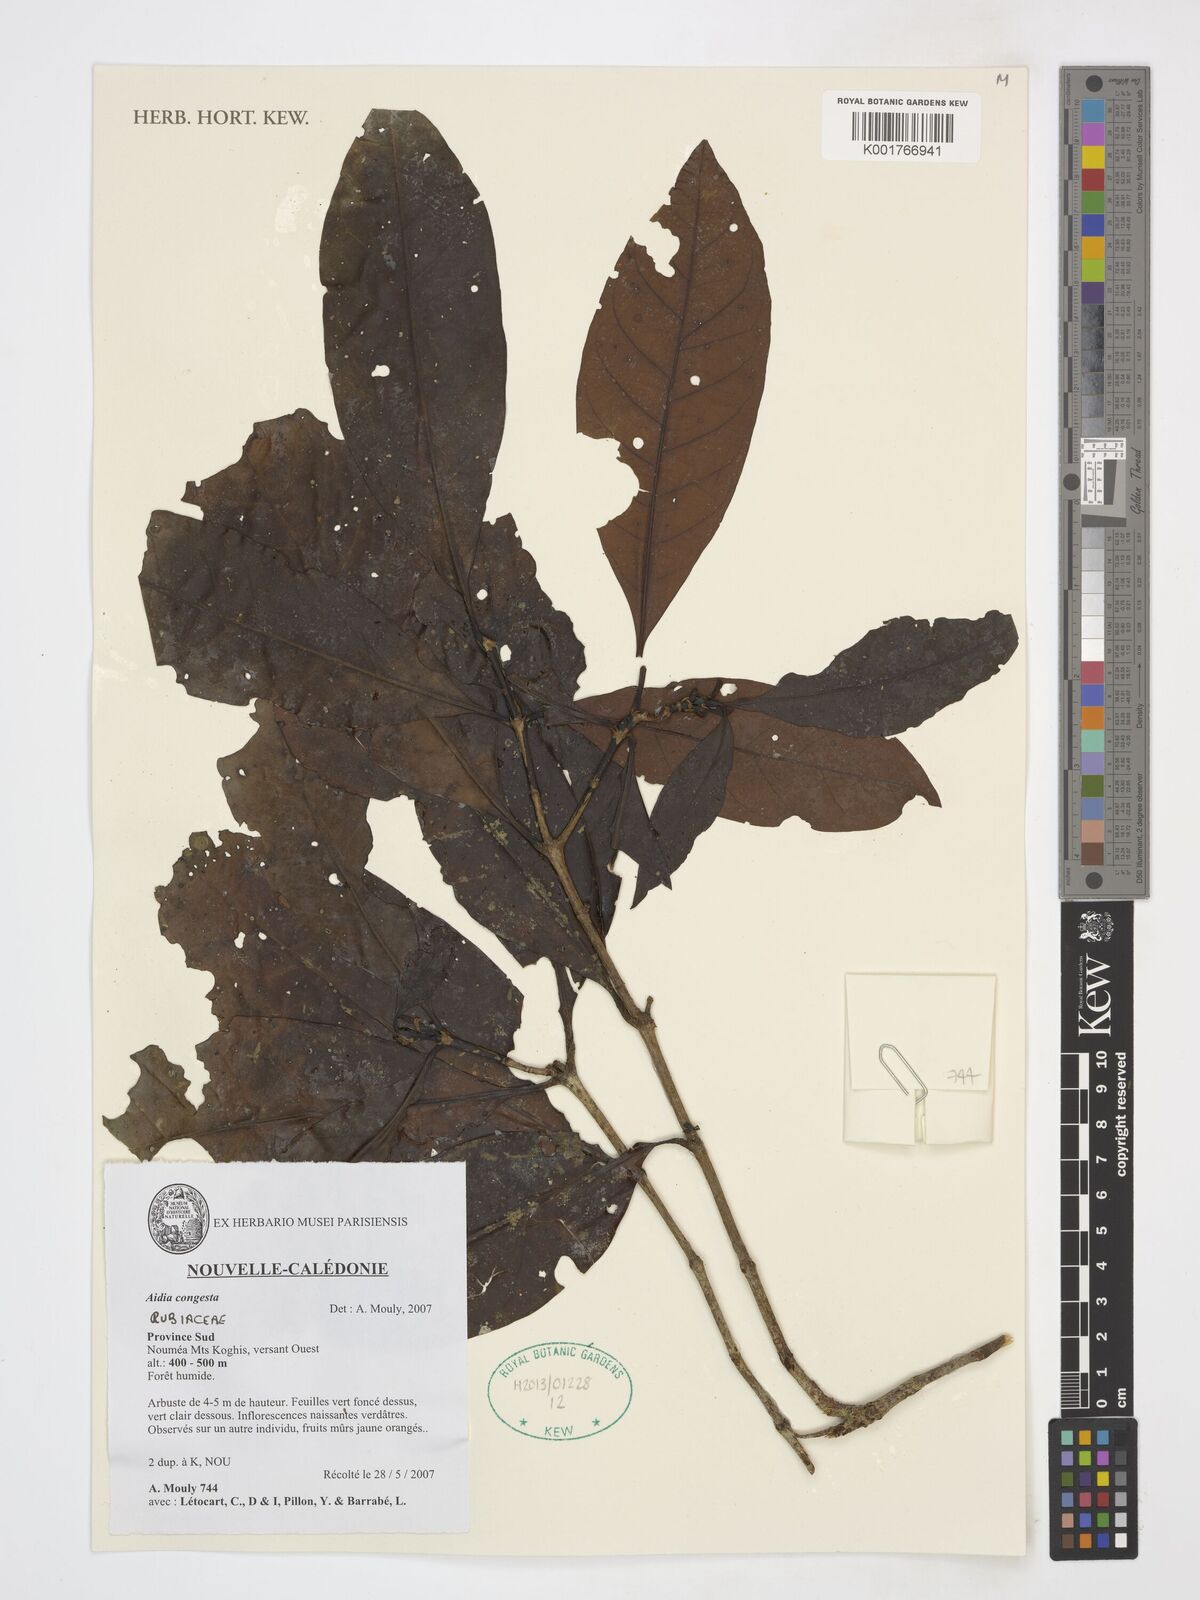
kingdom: Plantae
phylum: Tracheophyta
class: Magnoliopsida
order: Gentianales
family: Rubiaceae
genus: Aidia
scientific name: Aidia congesta
